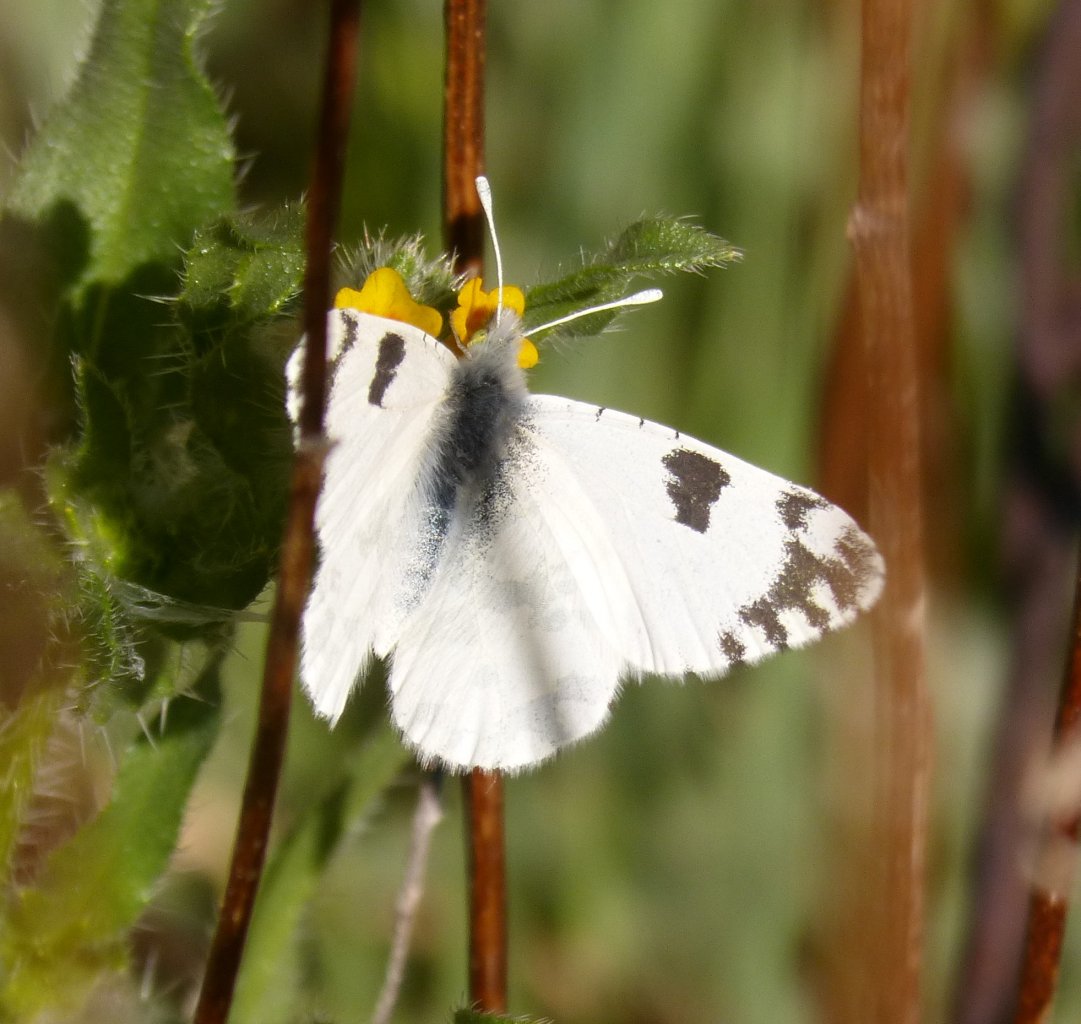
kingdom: Animalia
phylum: Arthropoda
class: Insecta
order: Lepidoptera
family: Pieridae
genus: Euchloe
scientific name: Euchloe lotta
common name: Desert Marble
